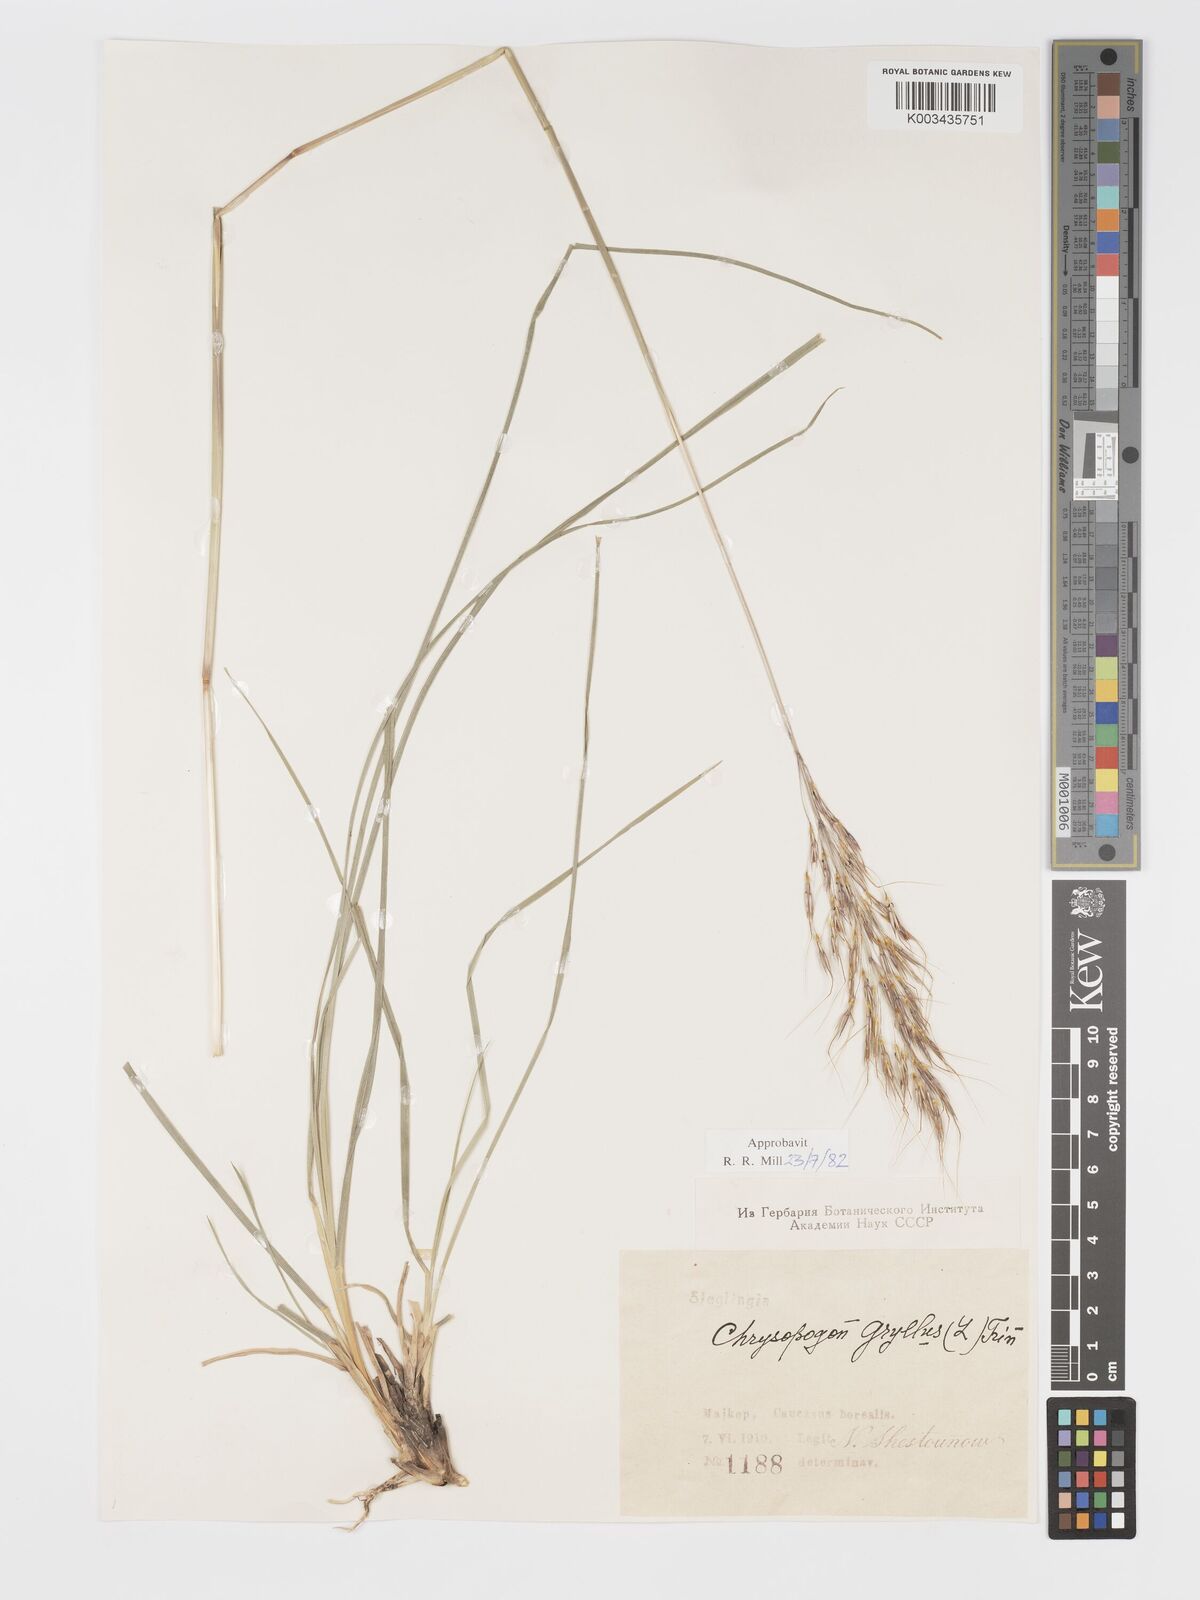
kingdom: Plantae
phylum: Tracheophyta
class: Liliopsida
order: Poales
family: Poaceae
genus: Chrysopogon
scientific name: Chrysopogon gryllus
